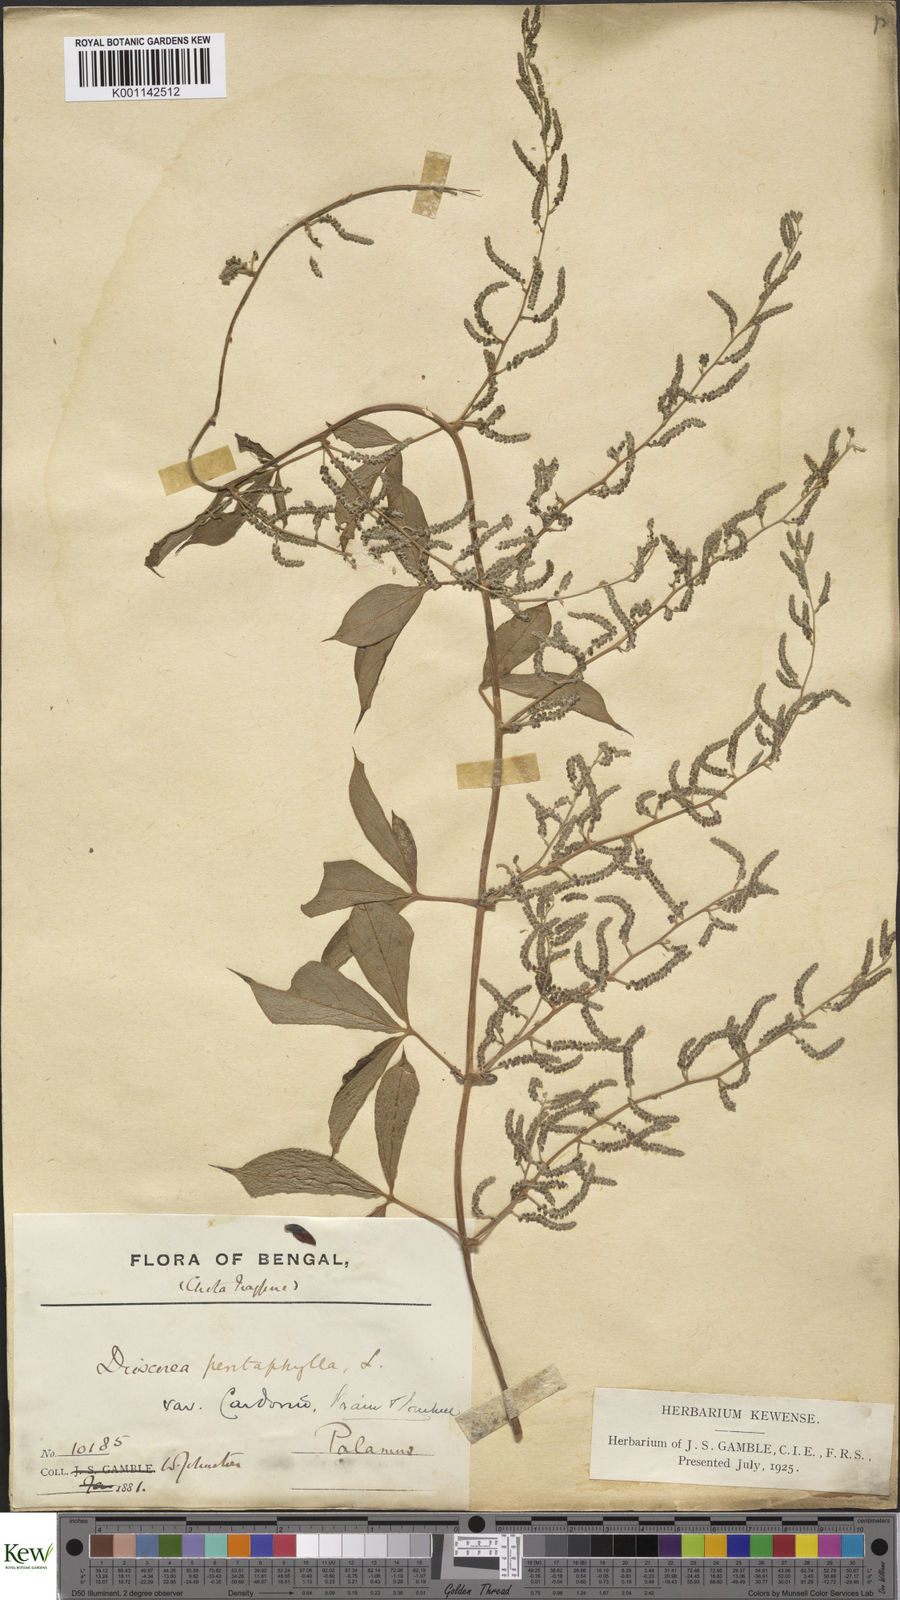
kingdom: Plantae
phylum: Tracheophyta
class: Liliopsida
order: Dioscoreales
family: Dioscoreaceae
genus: Dioscorea
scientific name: Dioscorea pentaphylla
